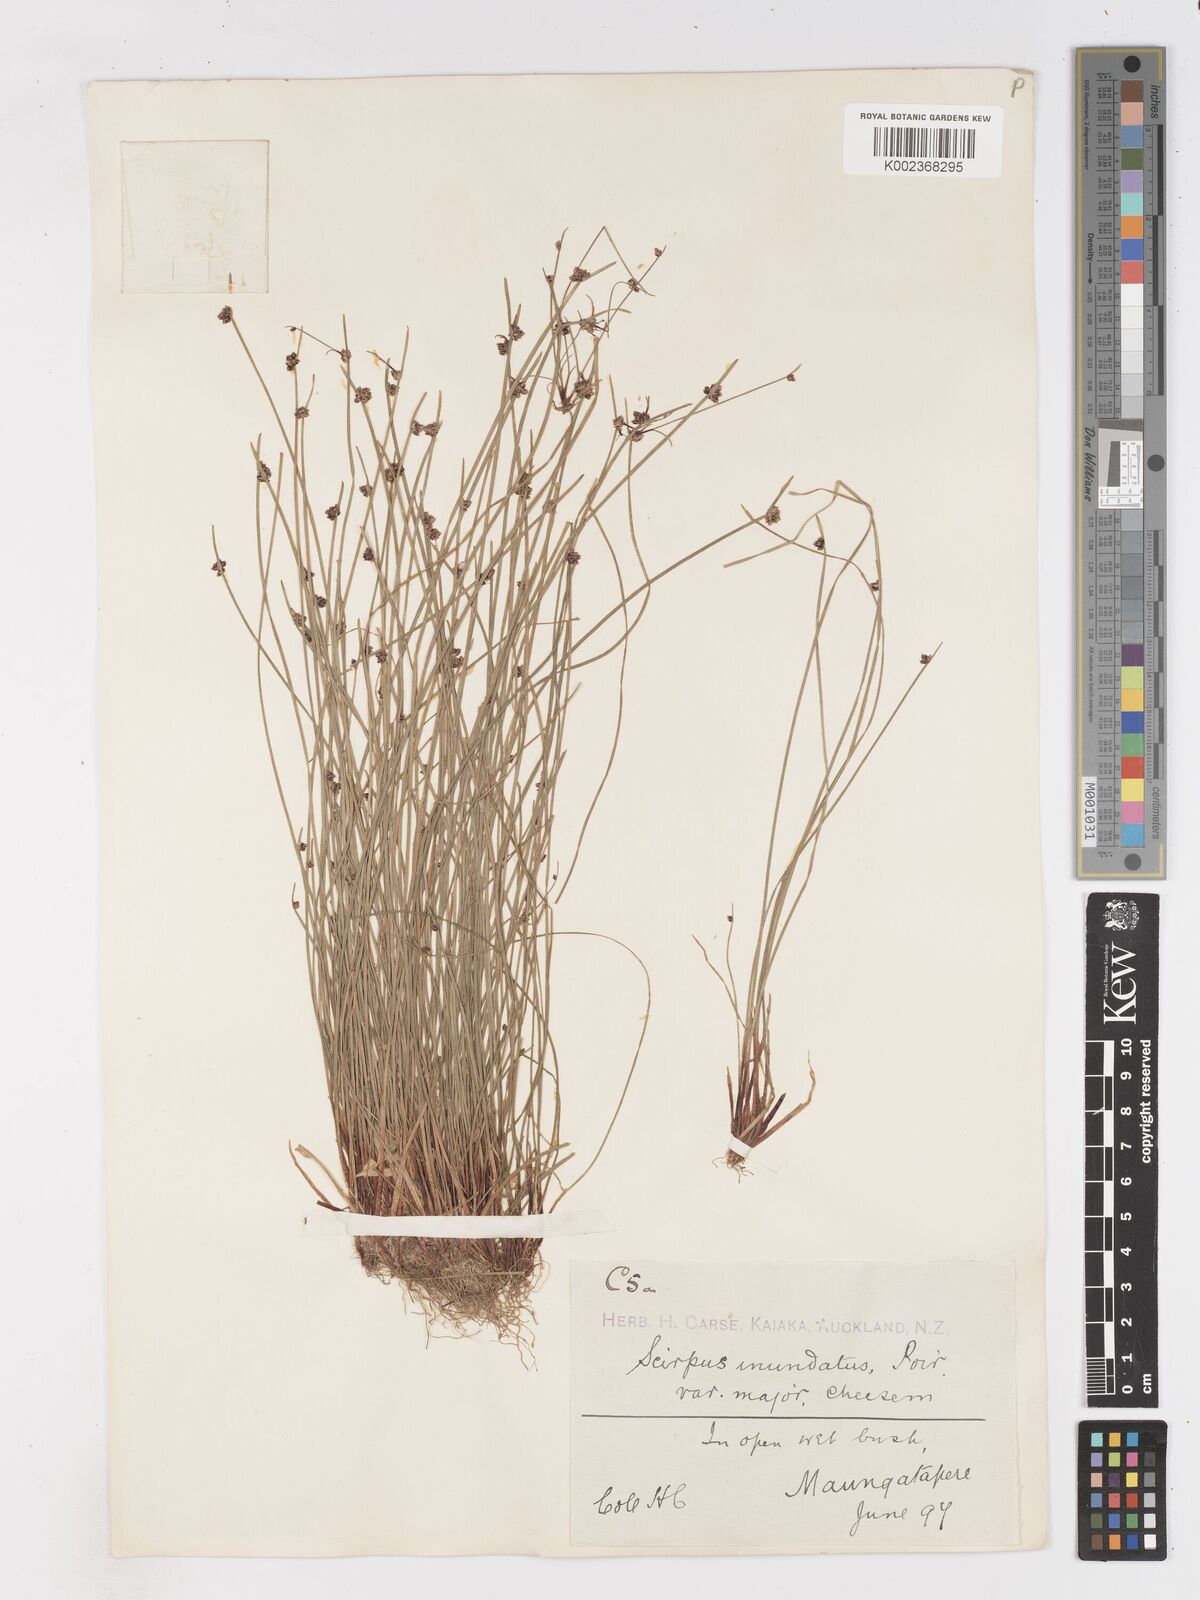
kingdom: Plantae
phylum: Tracheophyta
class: Liliopsida
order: Poales
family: Cyperaceae
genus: Isolepis
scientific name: Isolepis inundata
